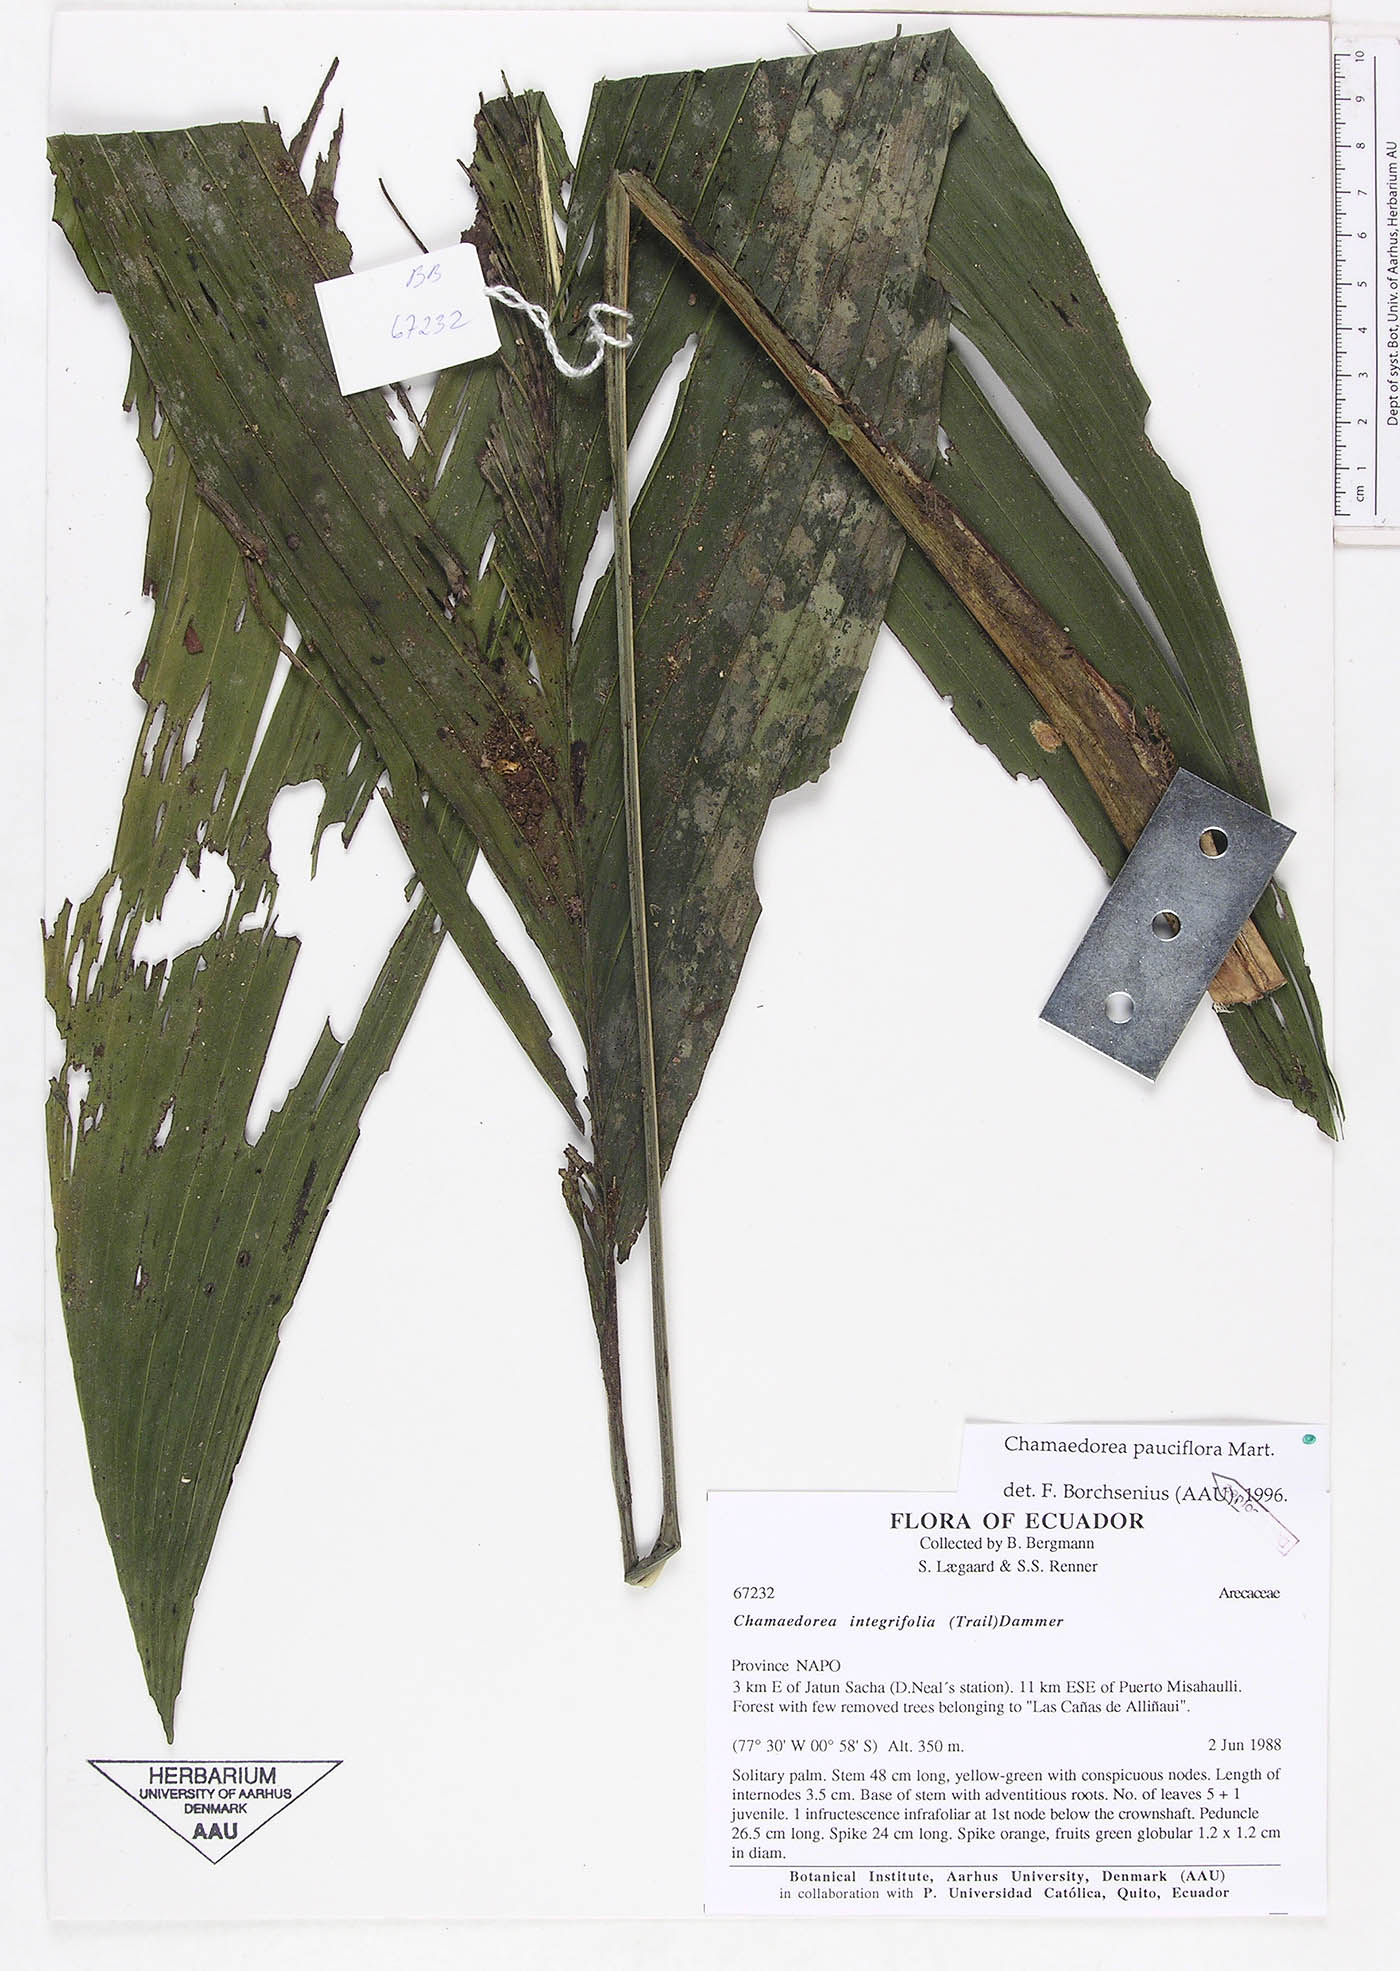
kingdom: Plantae
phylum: Tracheophyta
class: Liliopsida
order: Arecales
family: Arecaceae
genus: Chamaedorea
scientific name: Chamaedorea pauciflora
